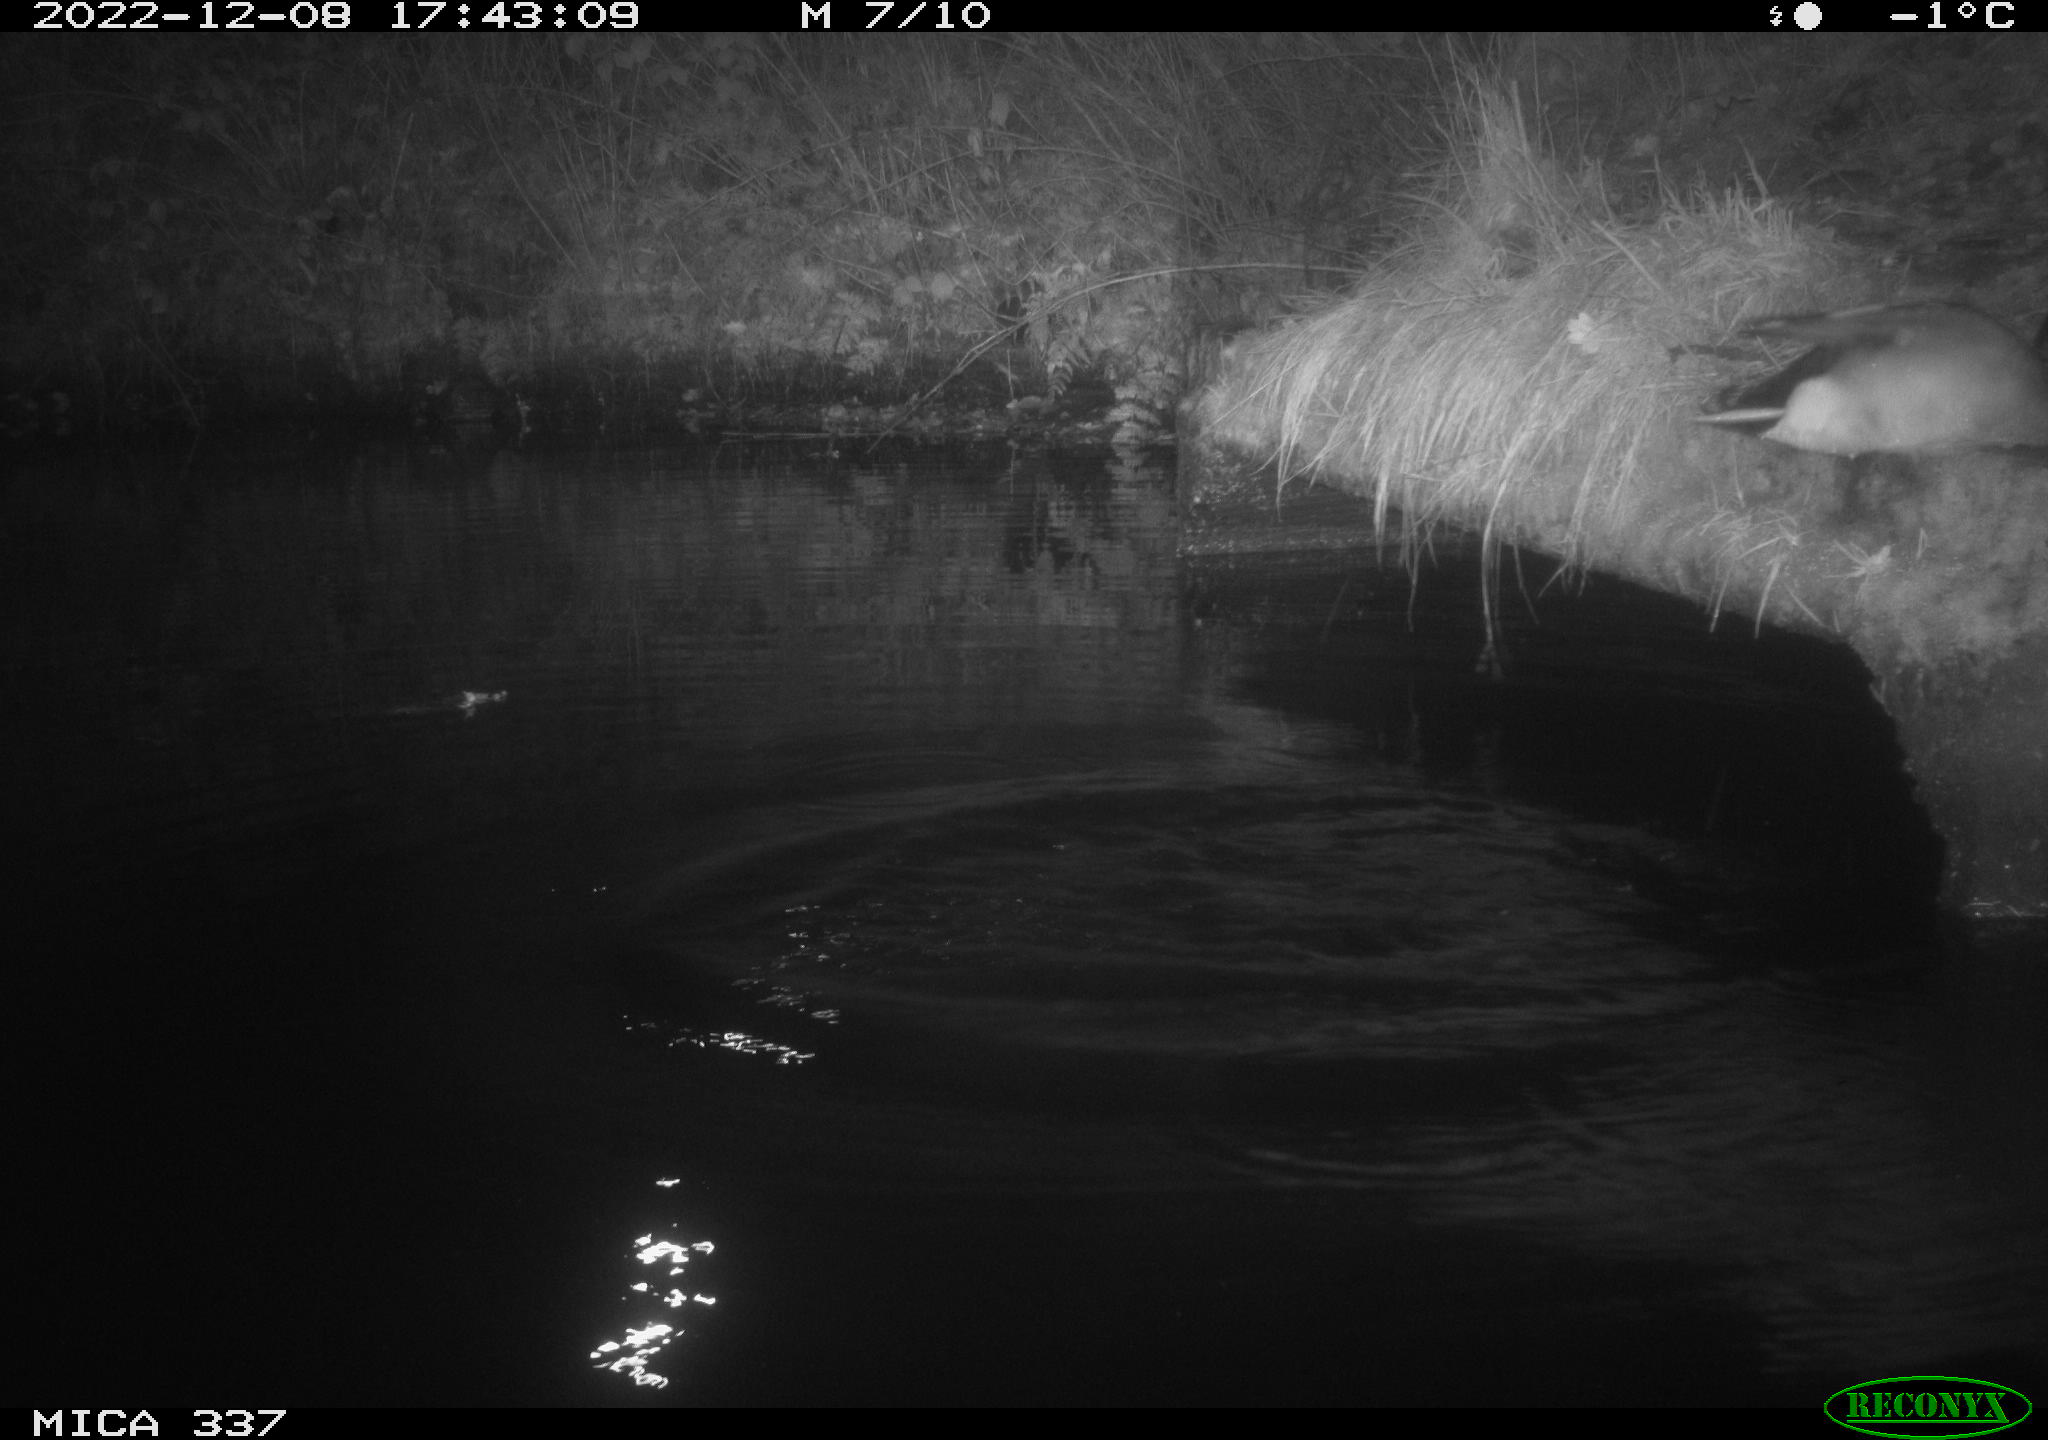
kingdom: Animalia
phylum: Chordata
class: Aves
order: Anseriformes
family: Anatidae
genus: Anas
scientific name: Anas
